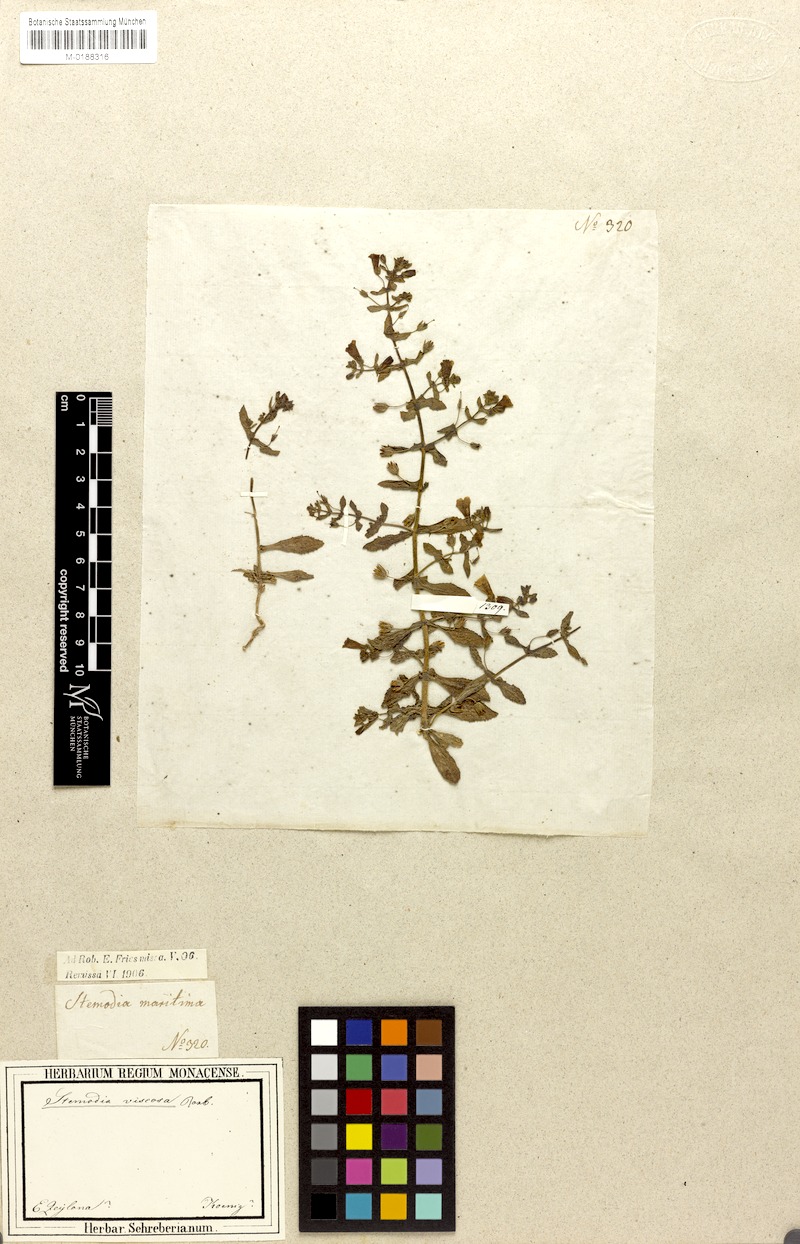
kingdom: Plantae
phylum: Tracheophyta
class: Magnoliopsida
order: Lamiales
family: Plantaginaceae
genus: Stemodia
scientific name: Stemodia viscosa
